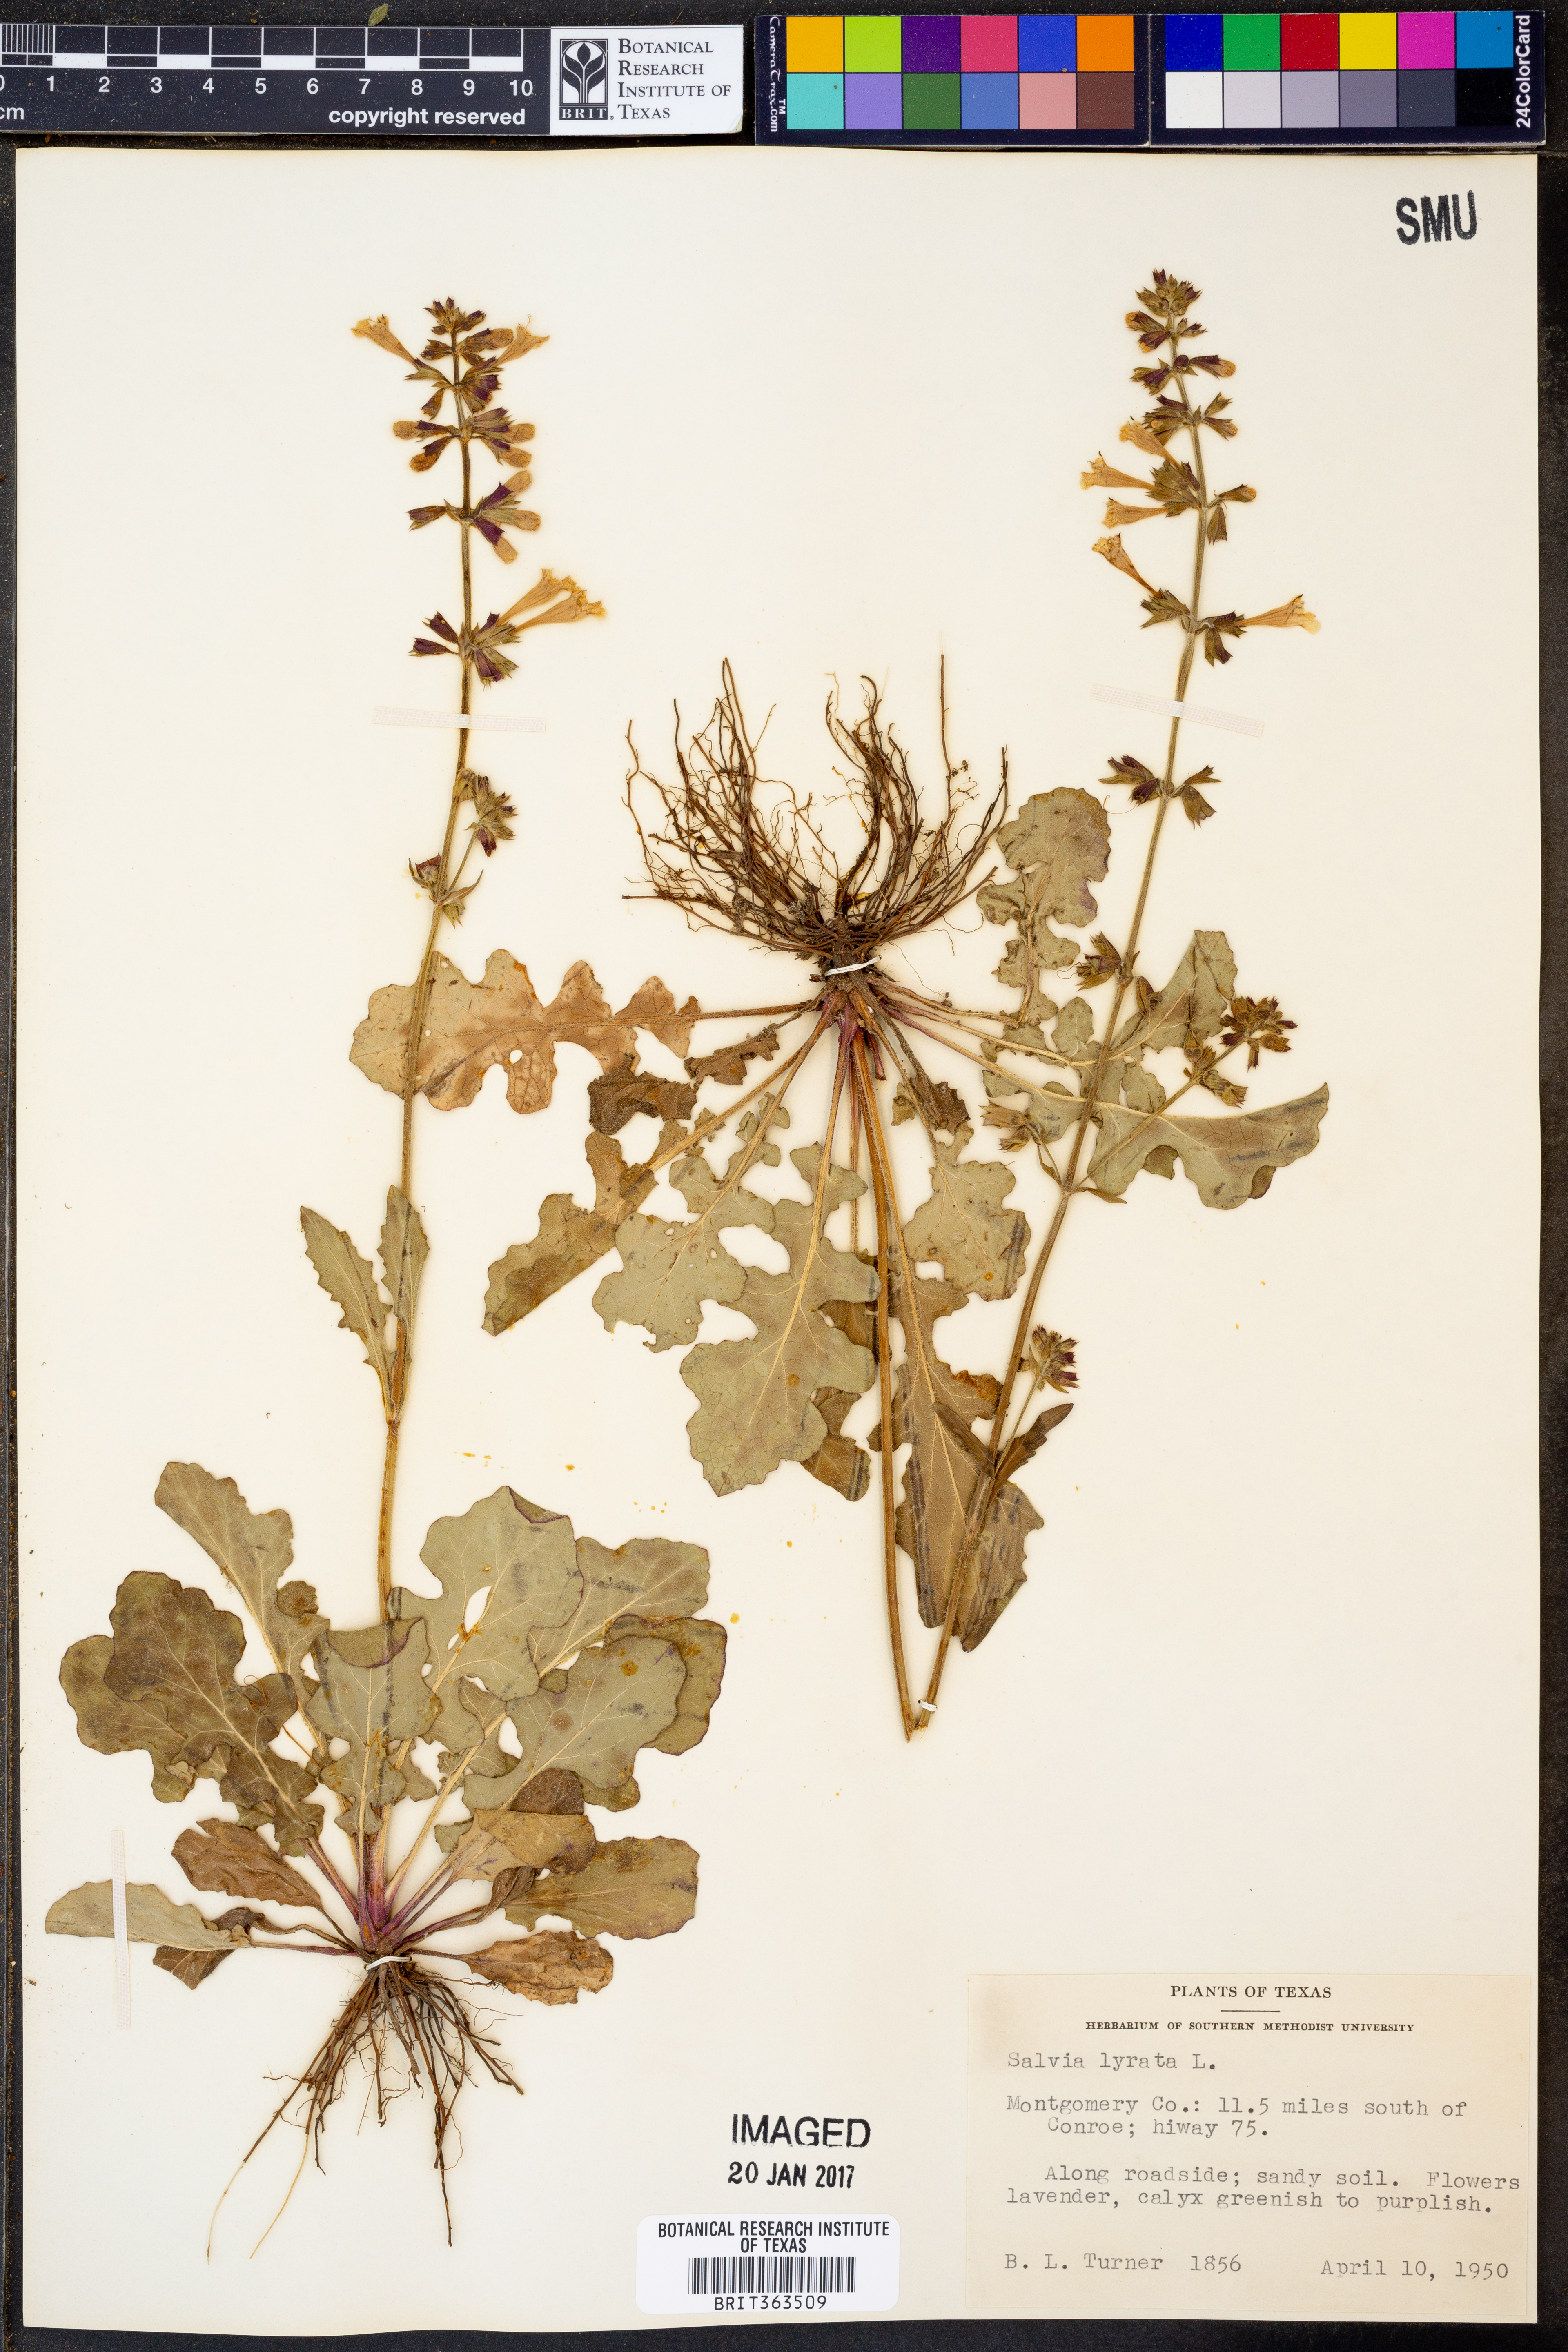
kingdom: Plantae
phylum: Tracheophyta
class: Magnoliopsida
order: Lamiales
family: Lamiaceae
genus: Salvia
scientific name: Salvia lyrata
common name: Cancerweed
